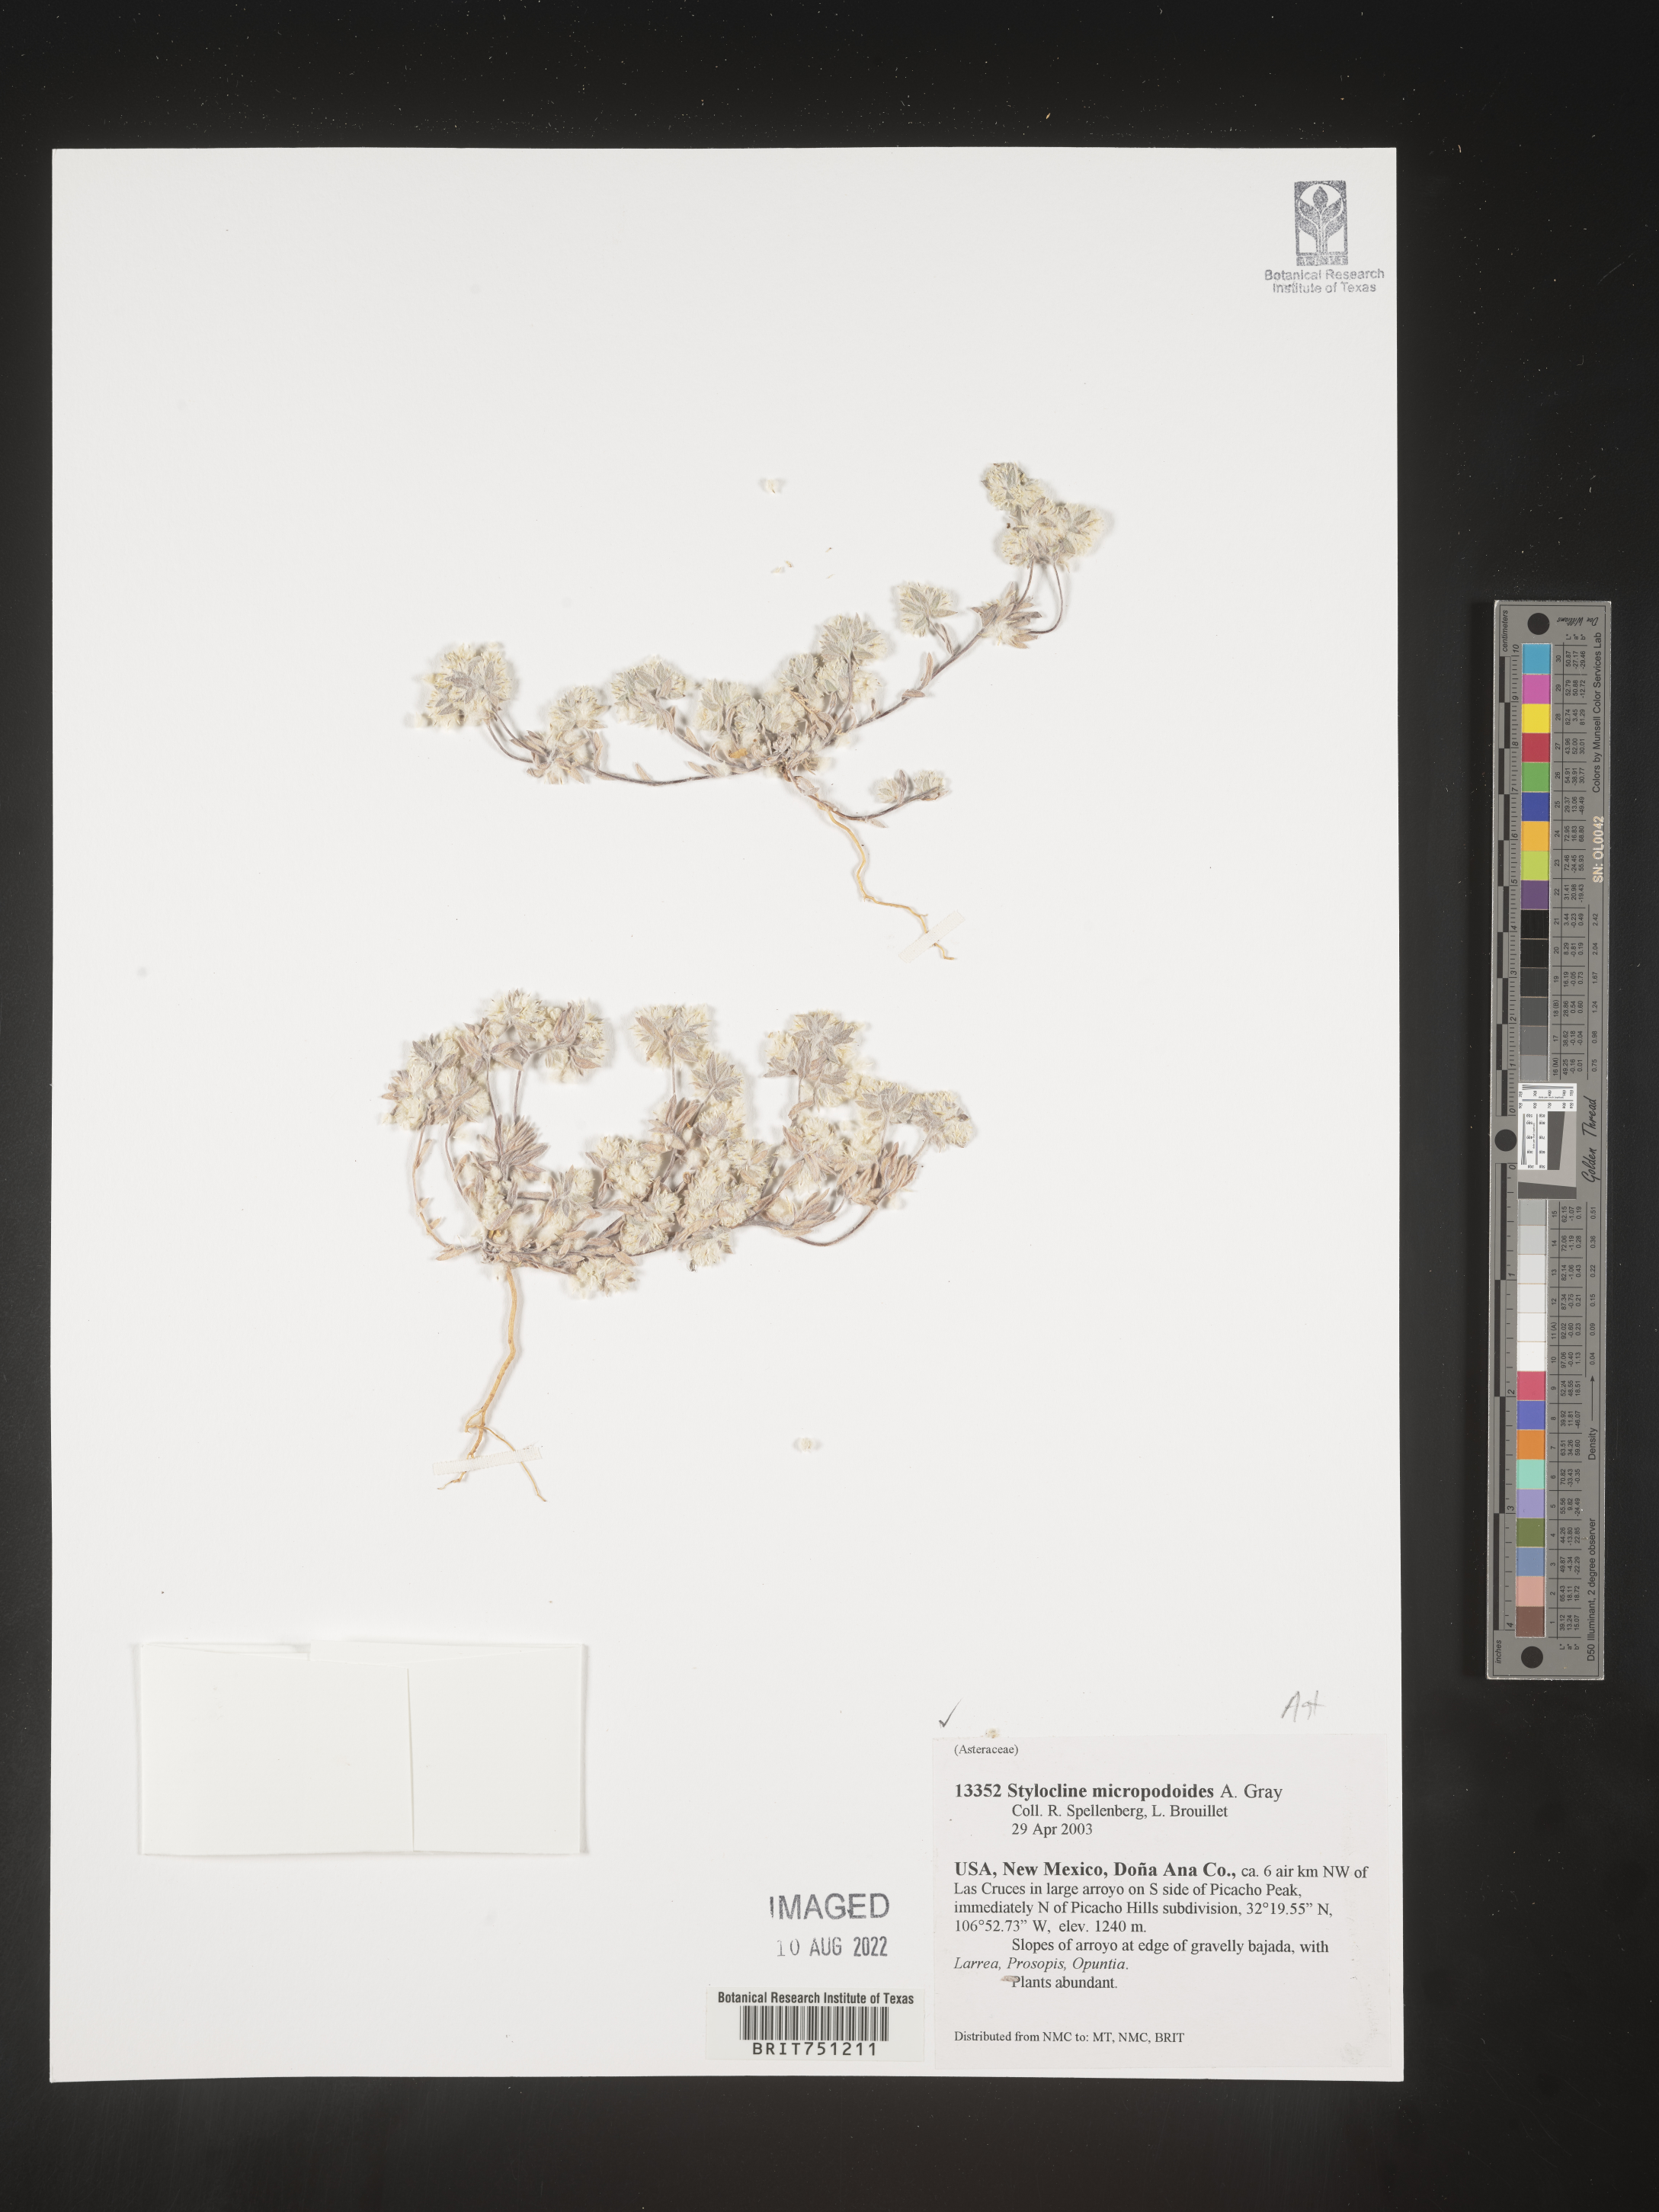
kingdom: Plantae
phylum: Tracheophyta
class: Magnoliopsida
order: Asterales
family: Asteraceae
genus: Stylocline
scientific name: Stylocline
